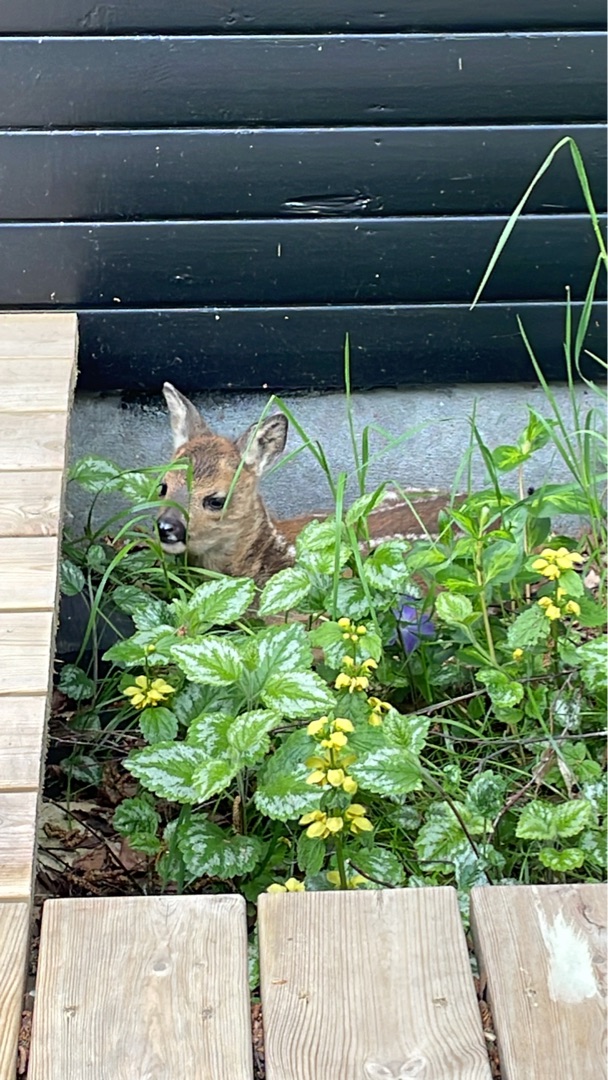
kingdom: Animalia
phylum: Chordata
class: Mammalia
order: Artiodactyla
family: Cervidae
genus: Capreolus
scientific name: Capreolus capreolus
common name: Rådyr
